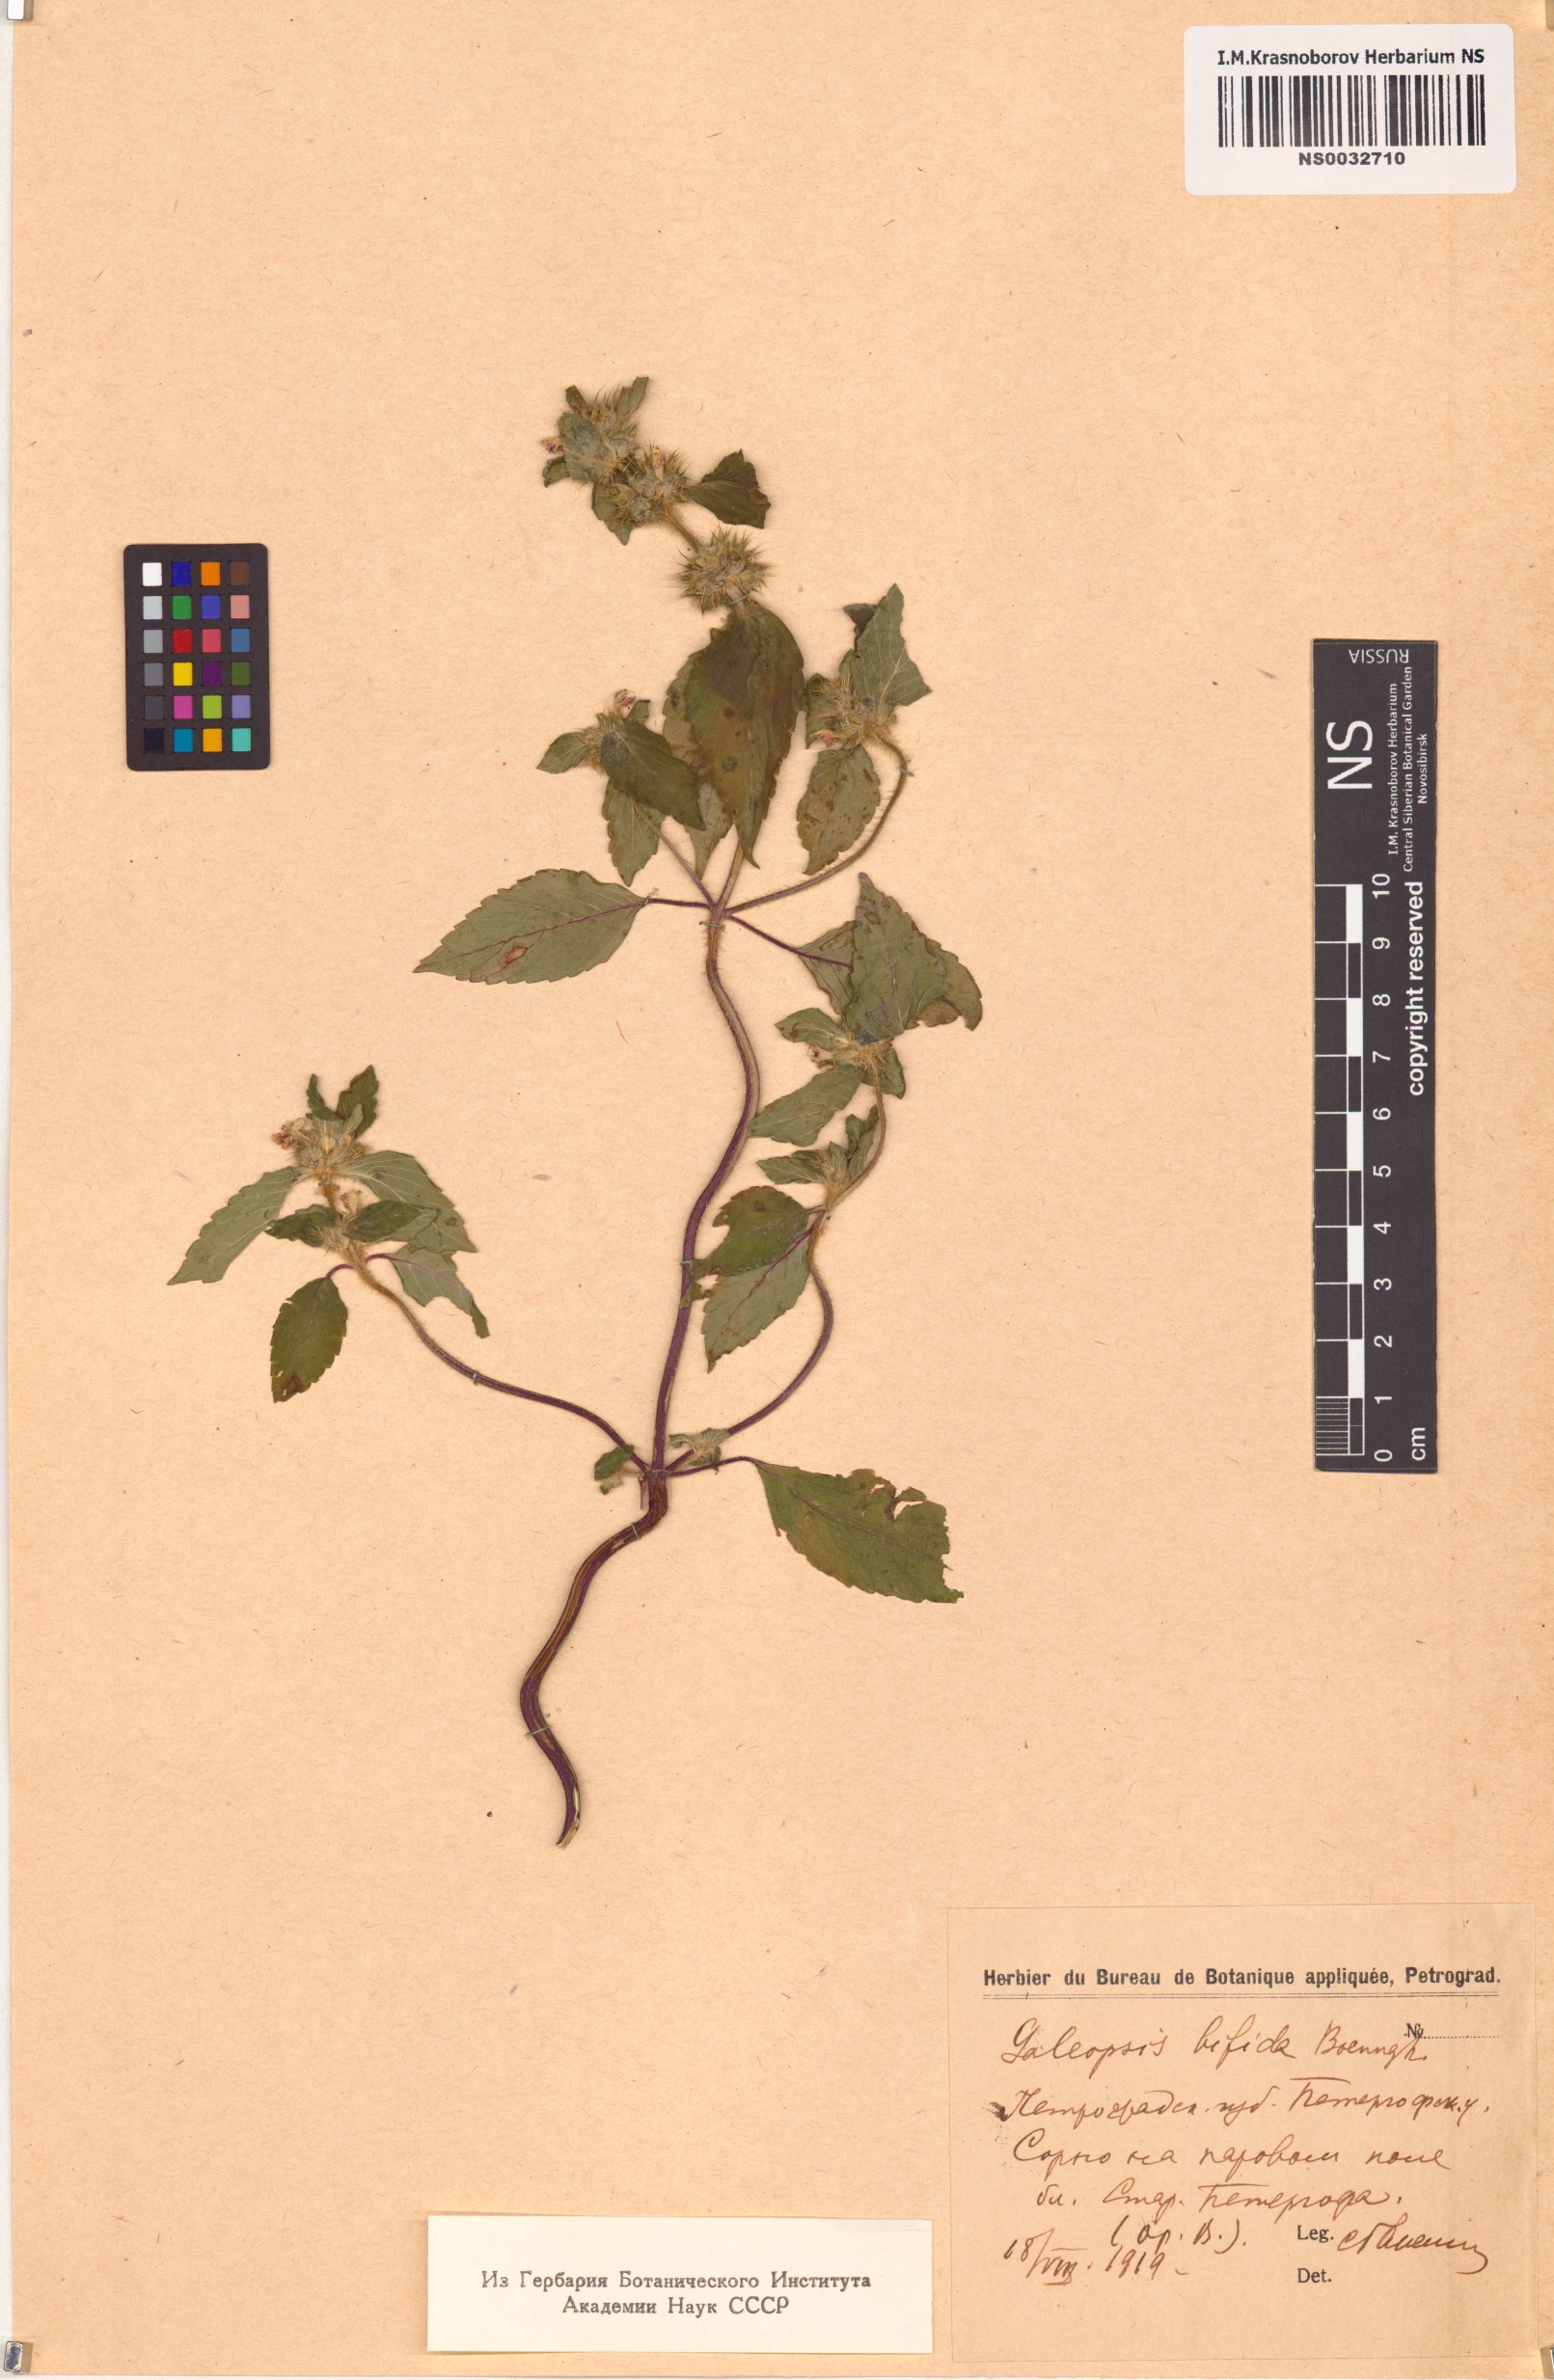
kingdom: Plantae
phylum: Tracheophyta
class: Magnoliopsida
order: Lamiales
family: Lamiaceae
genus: Galeopsis
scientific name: Galeopsis bifida
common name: Bifid hemp-nettle
